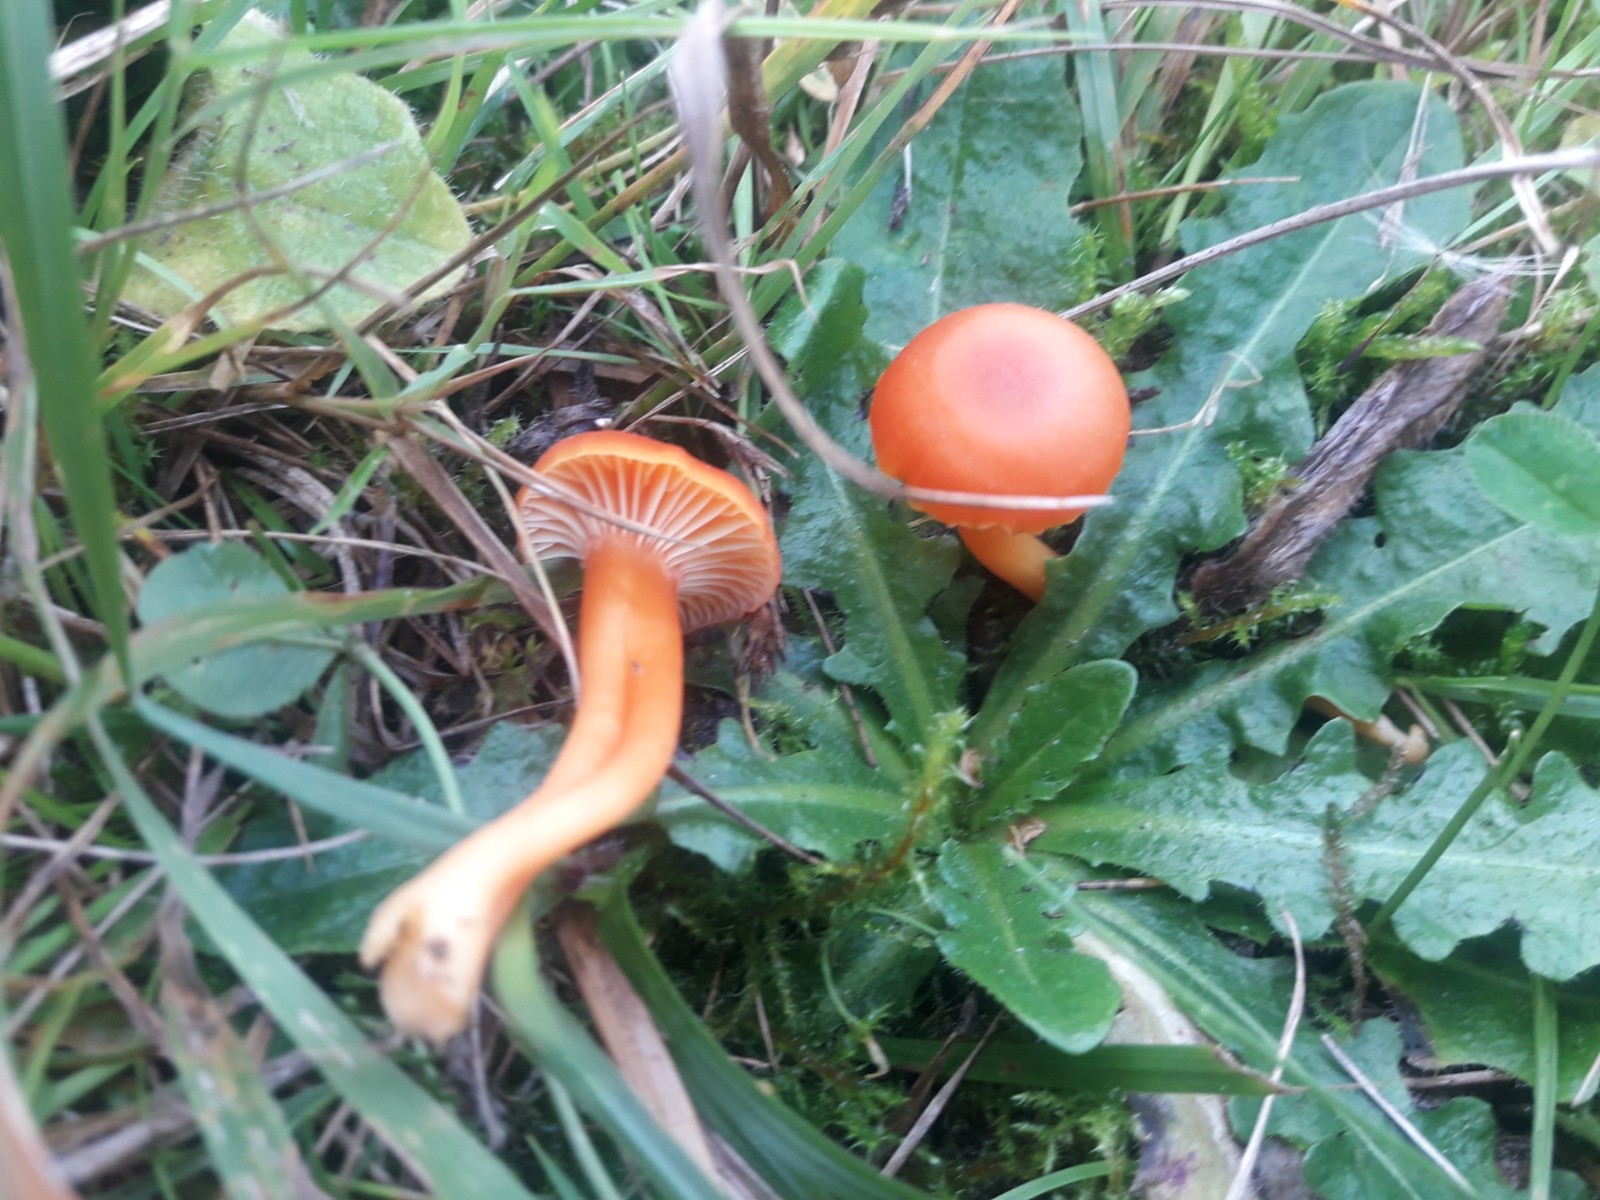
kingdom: Fungi
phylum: Basidiomycota
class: Agaricomycetes
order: Agaricales
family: Hygrophoraceae
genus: Hygrocybe
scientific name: Hygrocybe reidii
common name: honning-vokshat
